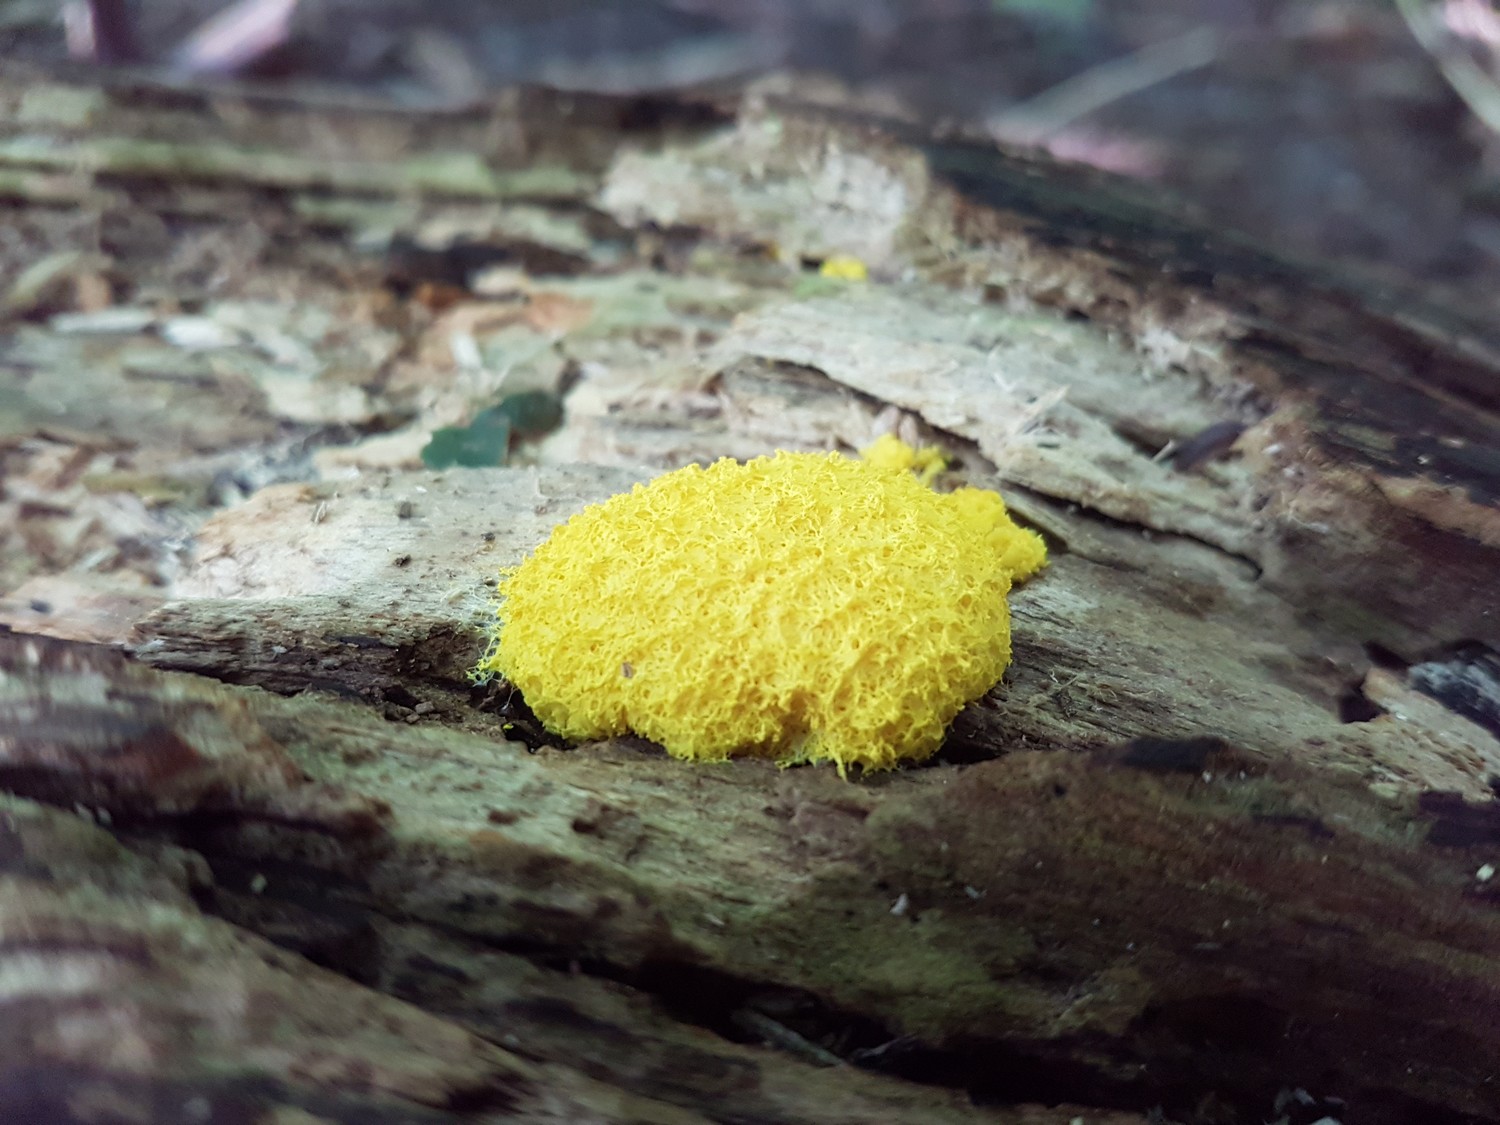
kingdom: Protozoa
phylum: Mycetozoa
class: Myxomycetes
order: Physarales
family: Physaraceae
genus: Fuligo
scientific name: Fuligo septica
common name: gul troldsmør
